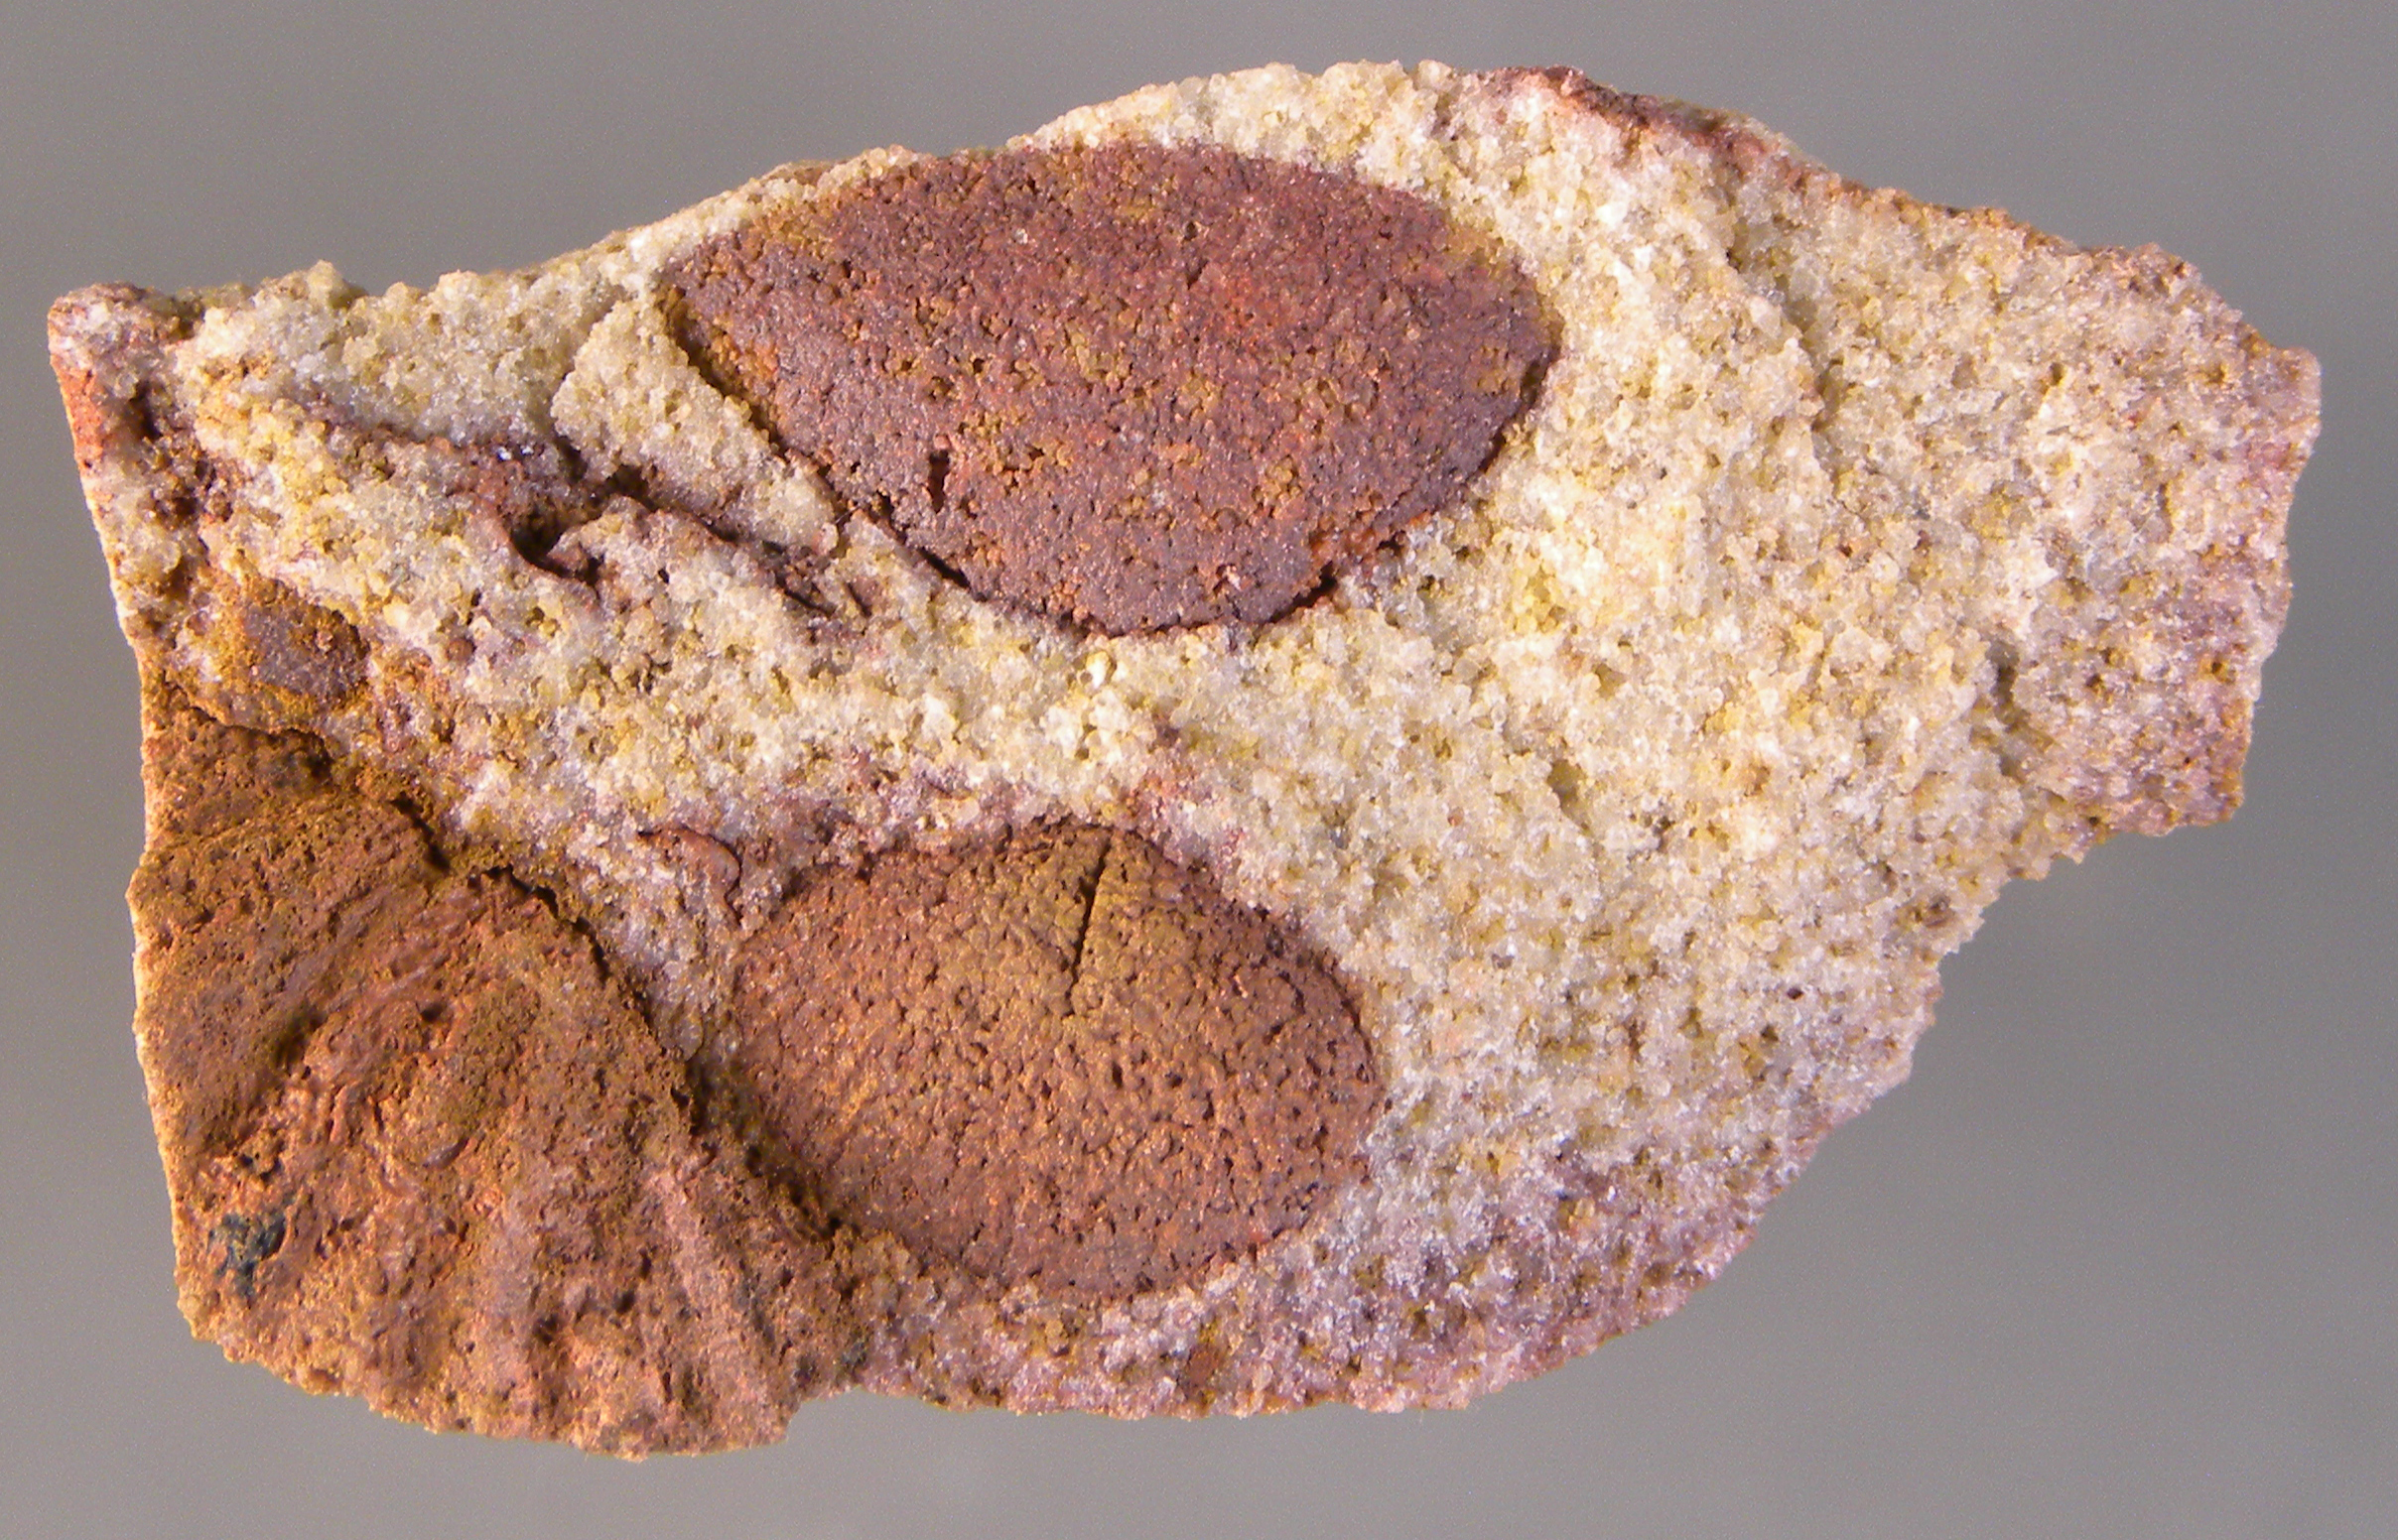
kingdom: Animalia
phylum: Mollusca
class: Bivalvia
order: Nuculanida
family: Malletiidae
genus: Palaeoneilo
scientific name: Palaeoneilo
